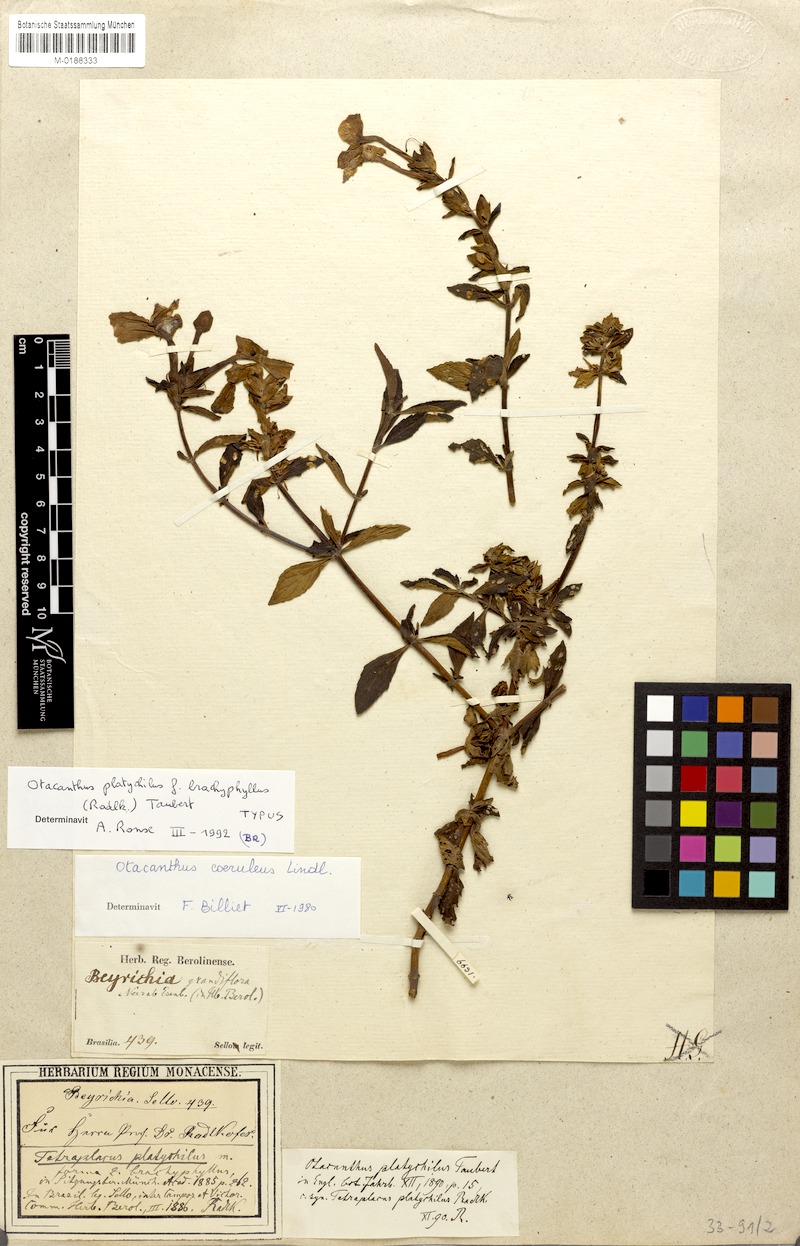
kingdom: Plantae
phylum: Tracheophyta
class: Magnoliopsida
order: Lamiales
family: Plantaginaceae
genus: Matourea
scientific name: Matourea platychila
